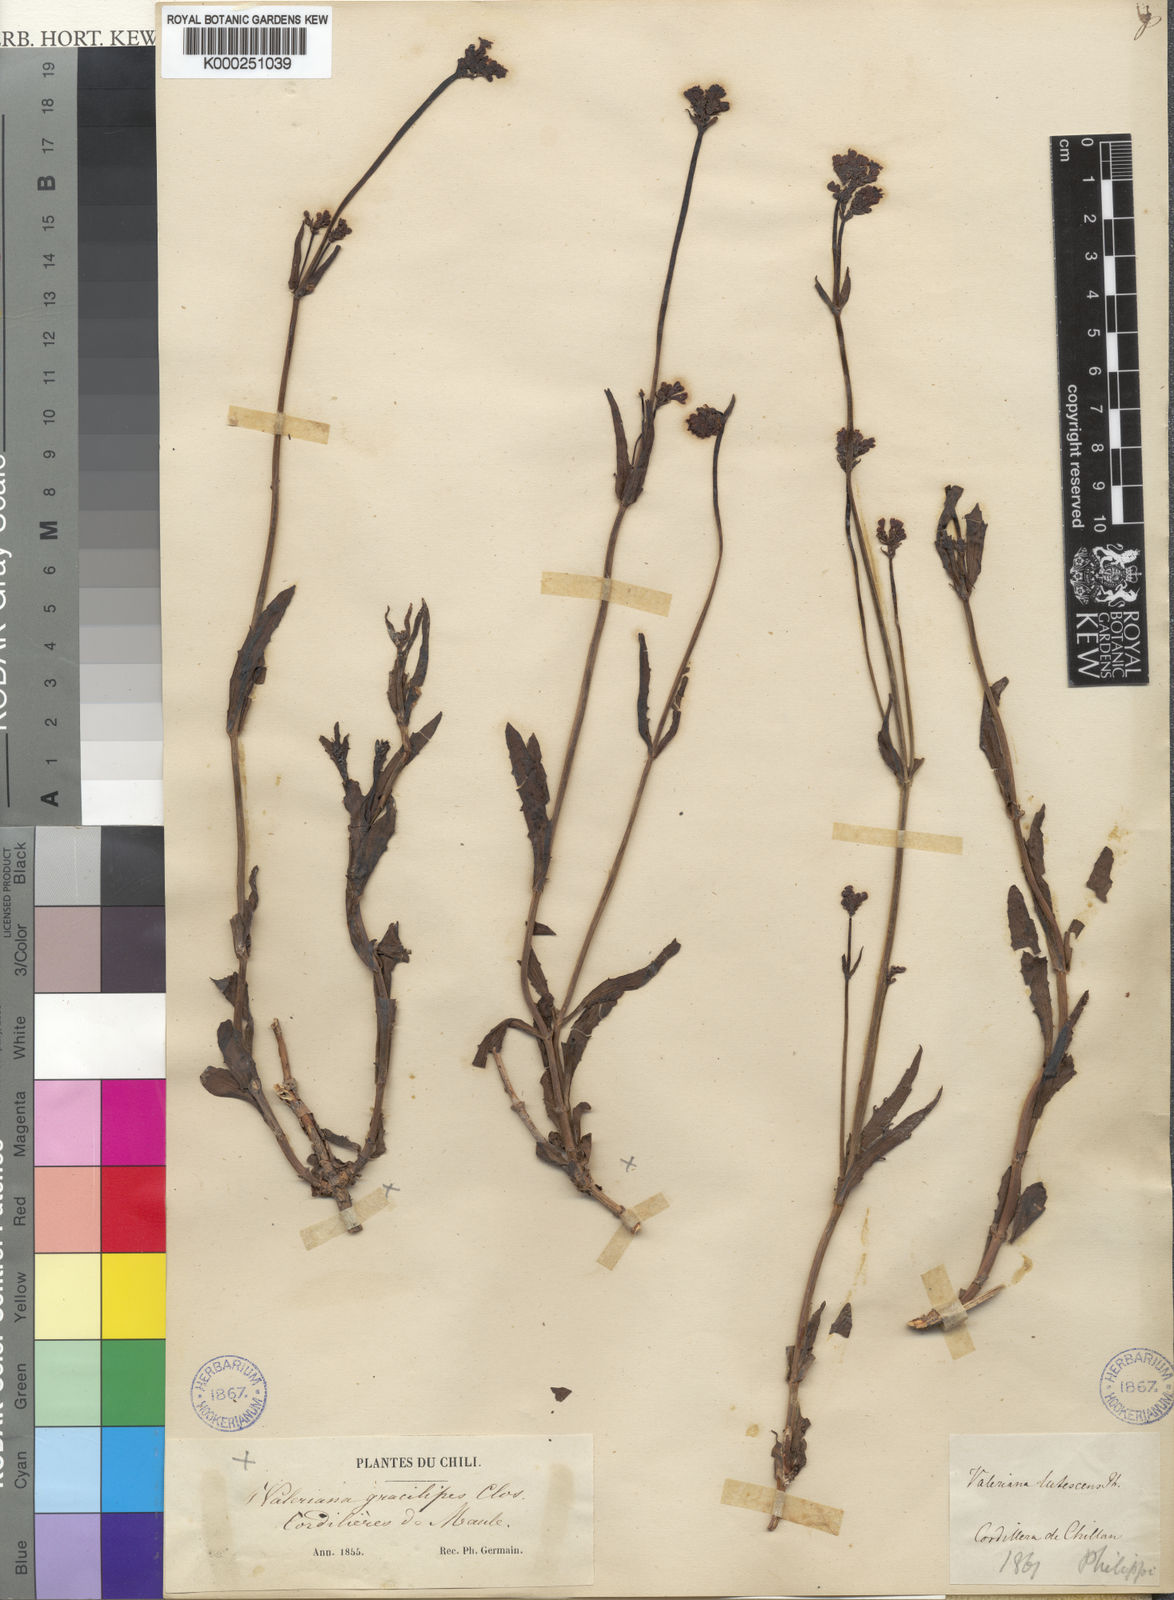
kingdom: Plantae
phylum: Tracheophyta
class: Magnoliopsida
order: Dipsacales
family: Caprifoliaceae
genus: Valeriana
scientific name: Valeriana gracilipes
